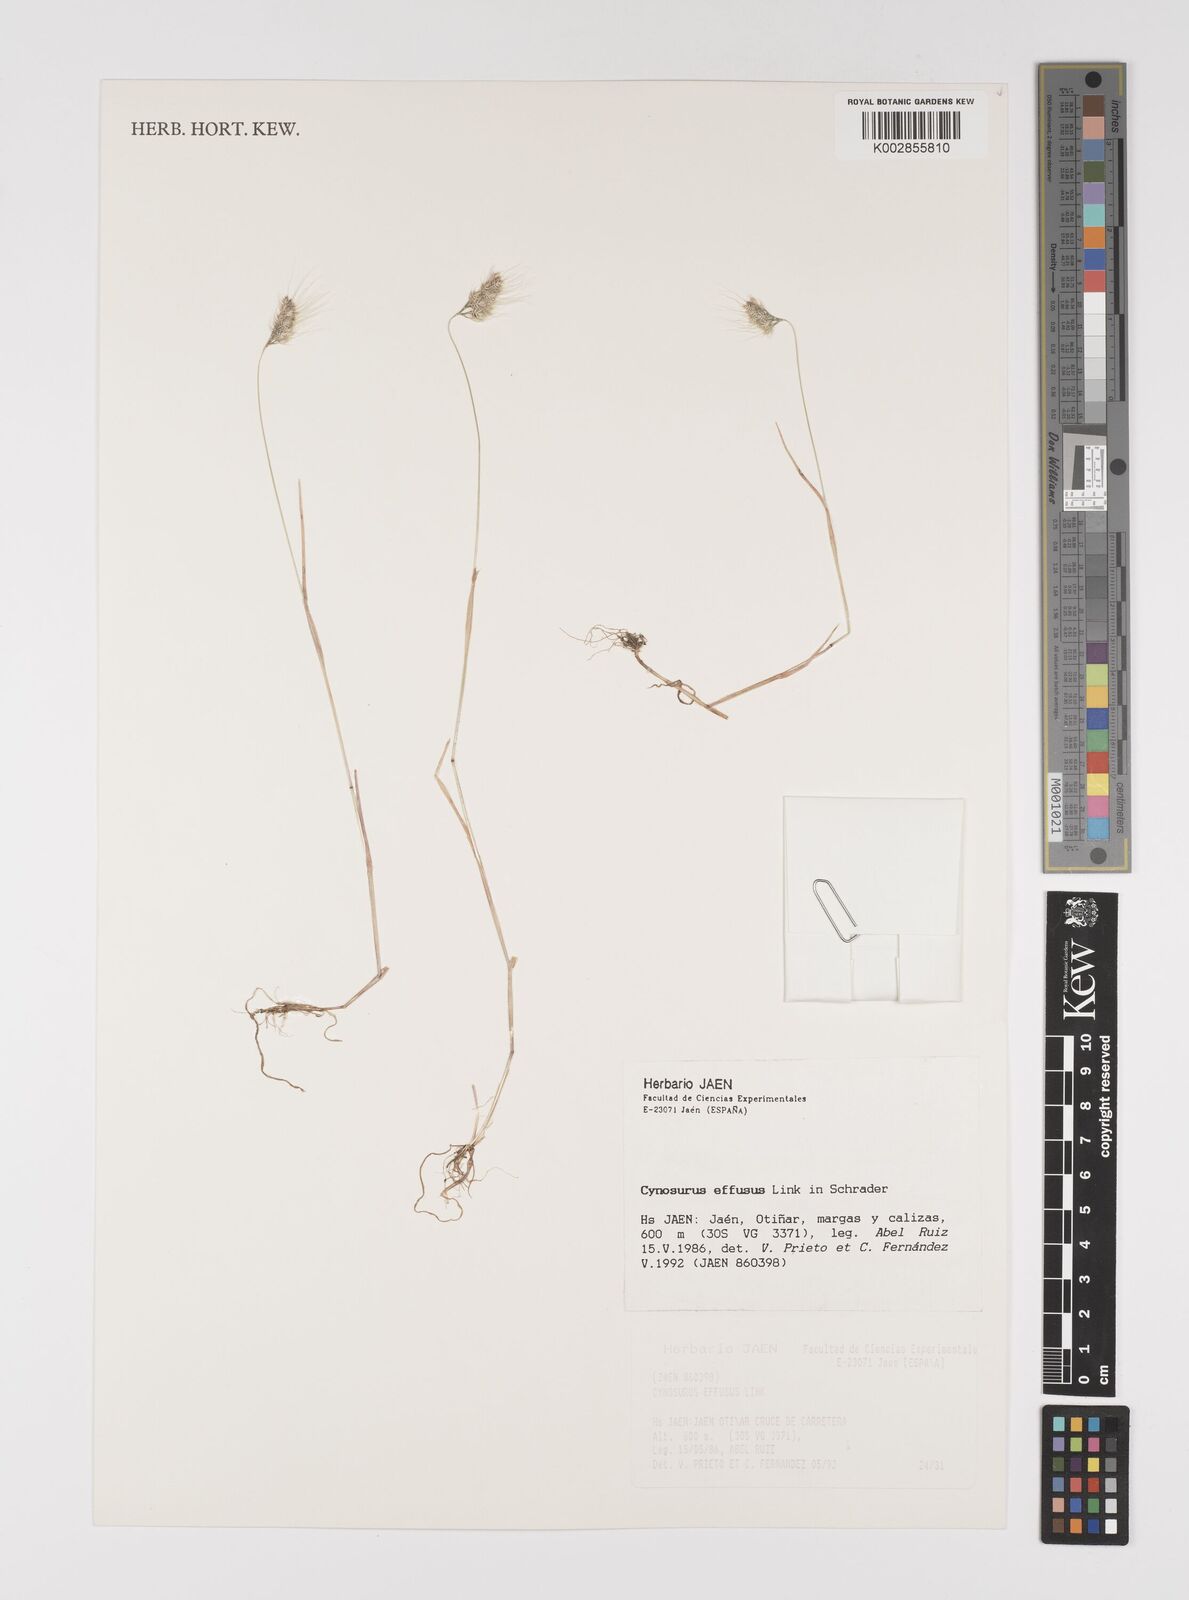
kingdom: Plantae
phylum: Tracheophyta
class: Liliopsida
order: Poales
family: Poaceae
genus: Cynosurus
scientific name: Cynosurus elegans
